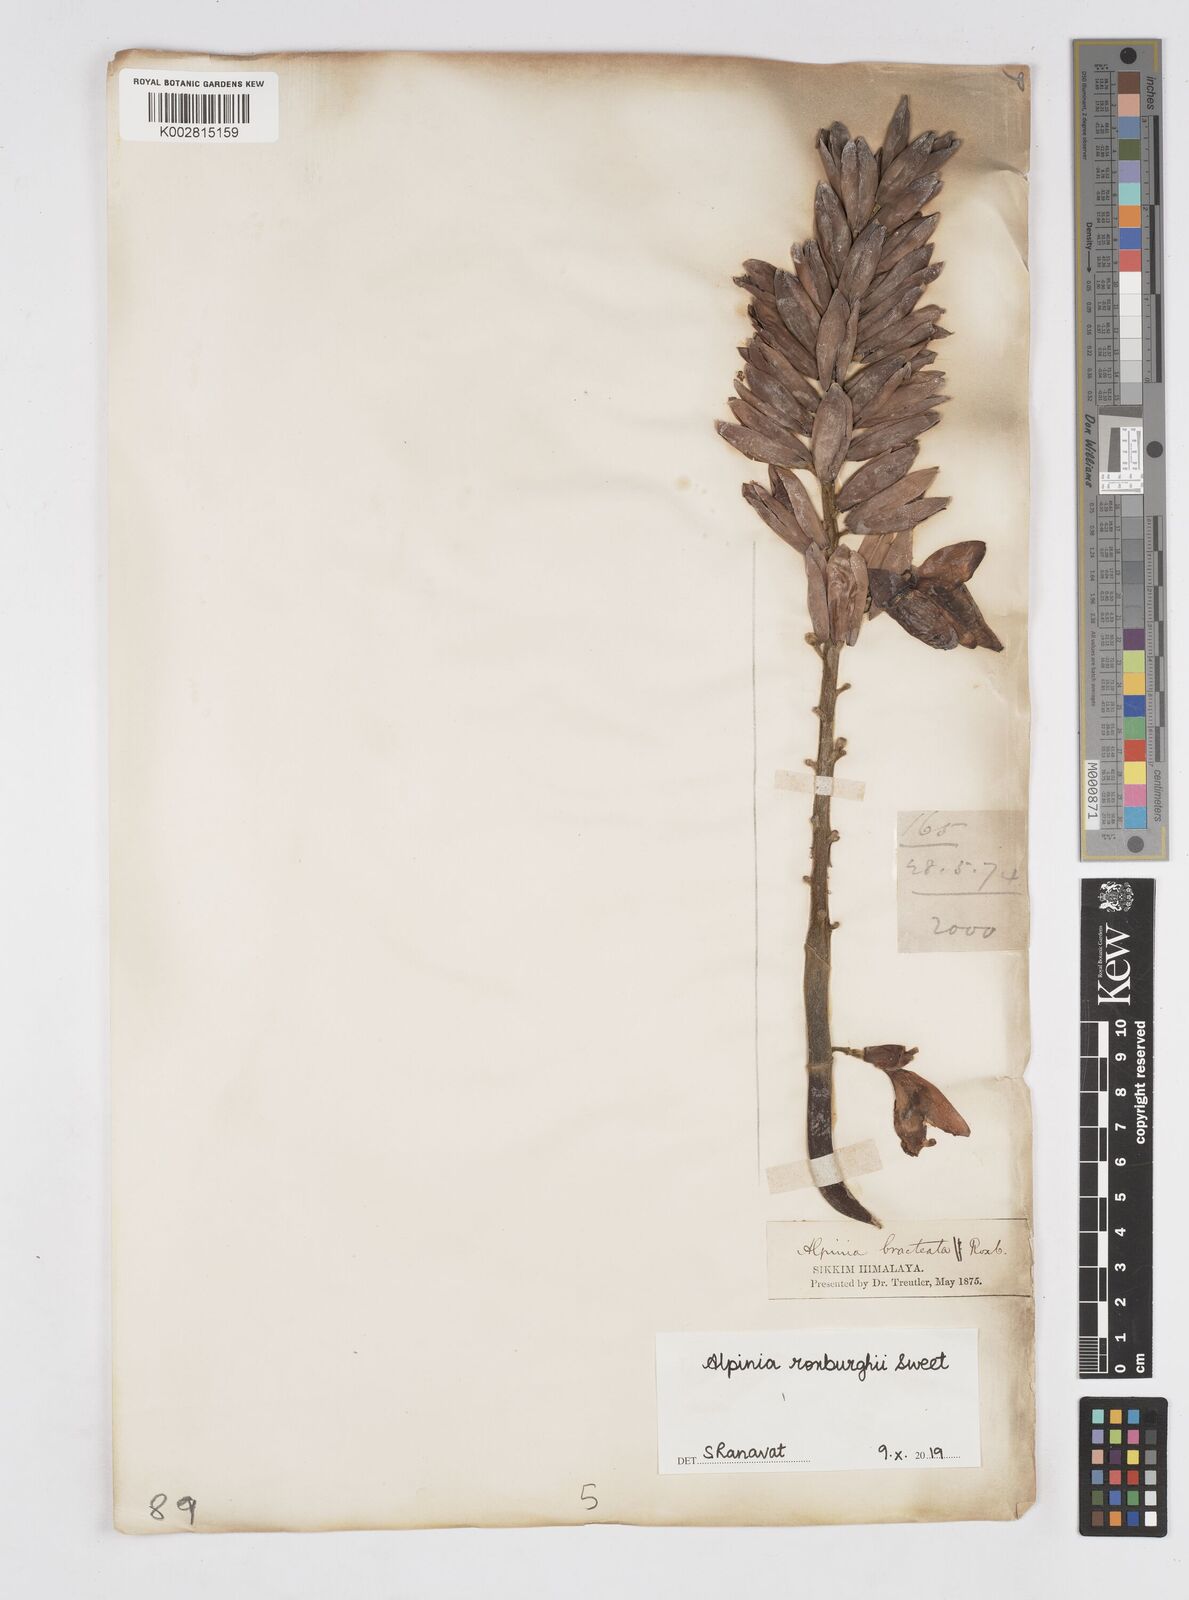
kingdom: Plantae
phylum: Tracheophyta
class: Liliopsida
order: Zingiberales
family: Zingiberaceae
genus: Alpinia
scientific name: Alpinia roxburghii
